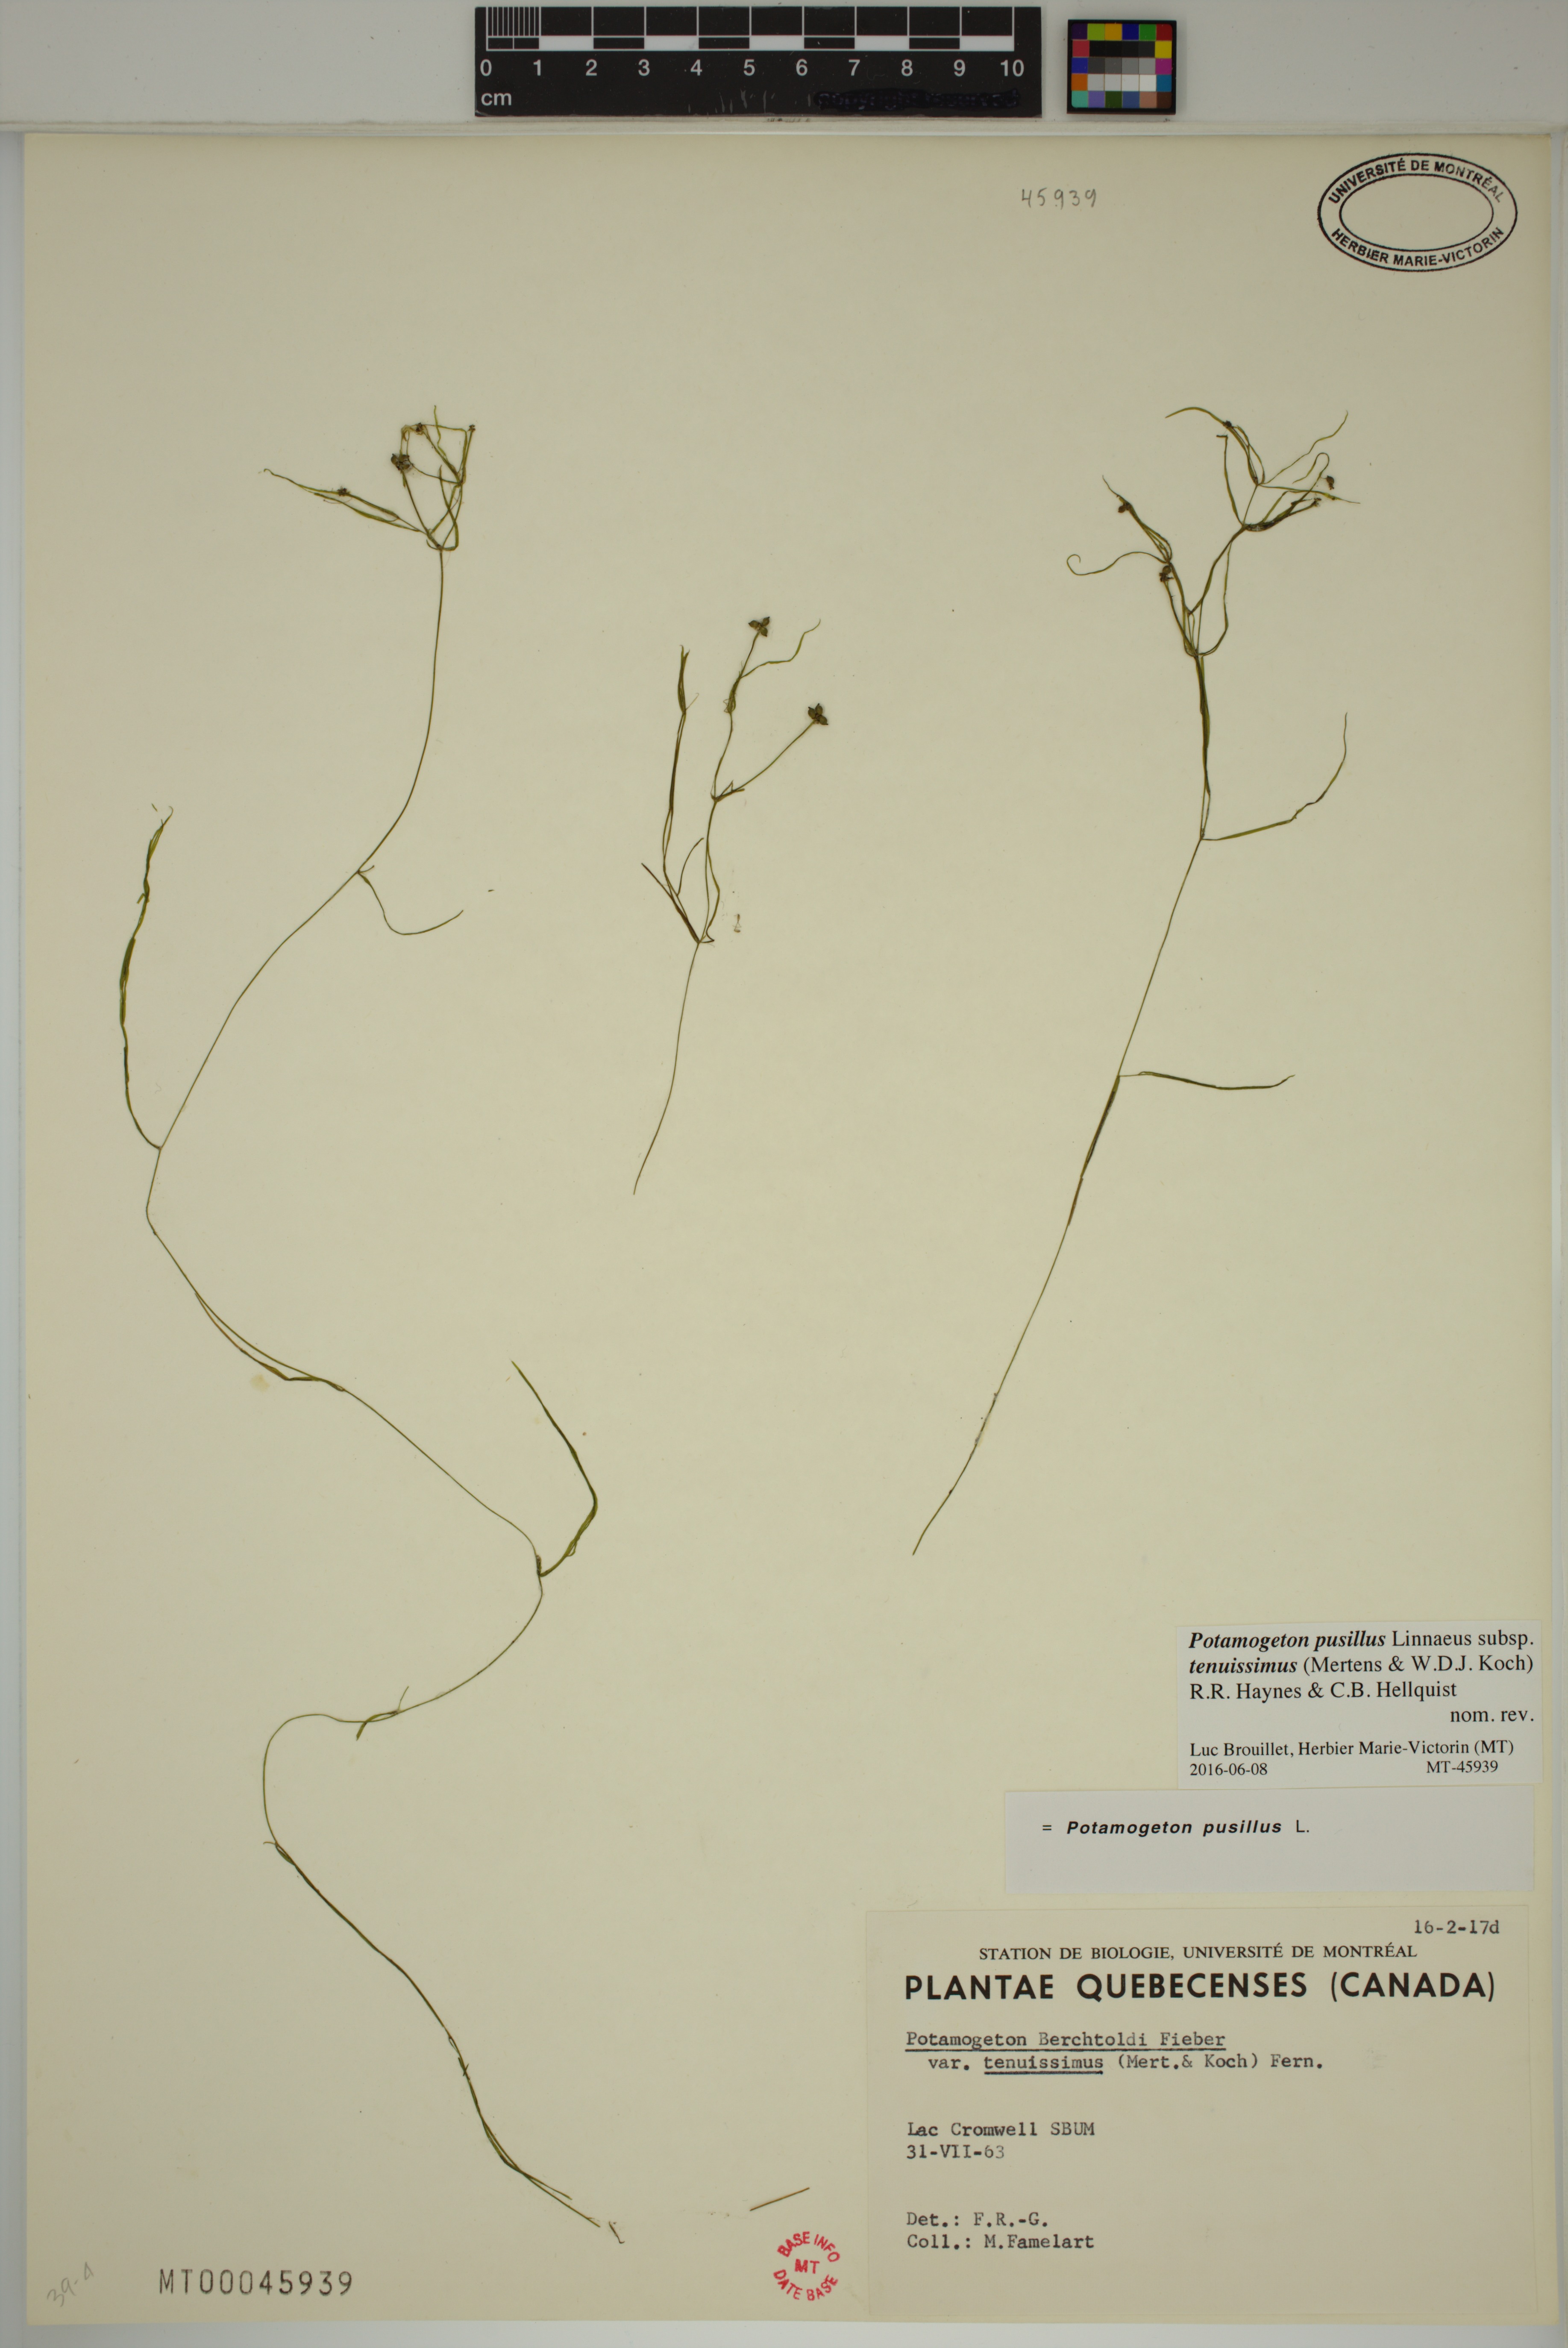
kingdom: Plantae
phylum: Tracheophyta
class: Liliopsida
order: Alismatales
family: Potamogetonaceae
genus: Potamogeton
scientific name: Potamogeton berchtoldii
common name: Small pondweed
